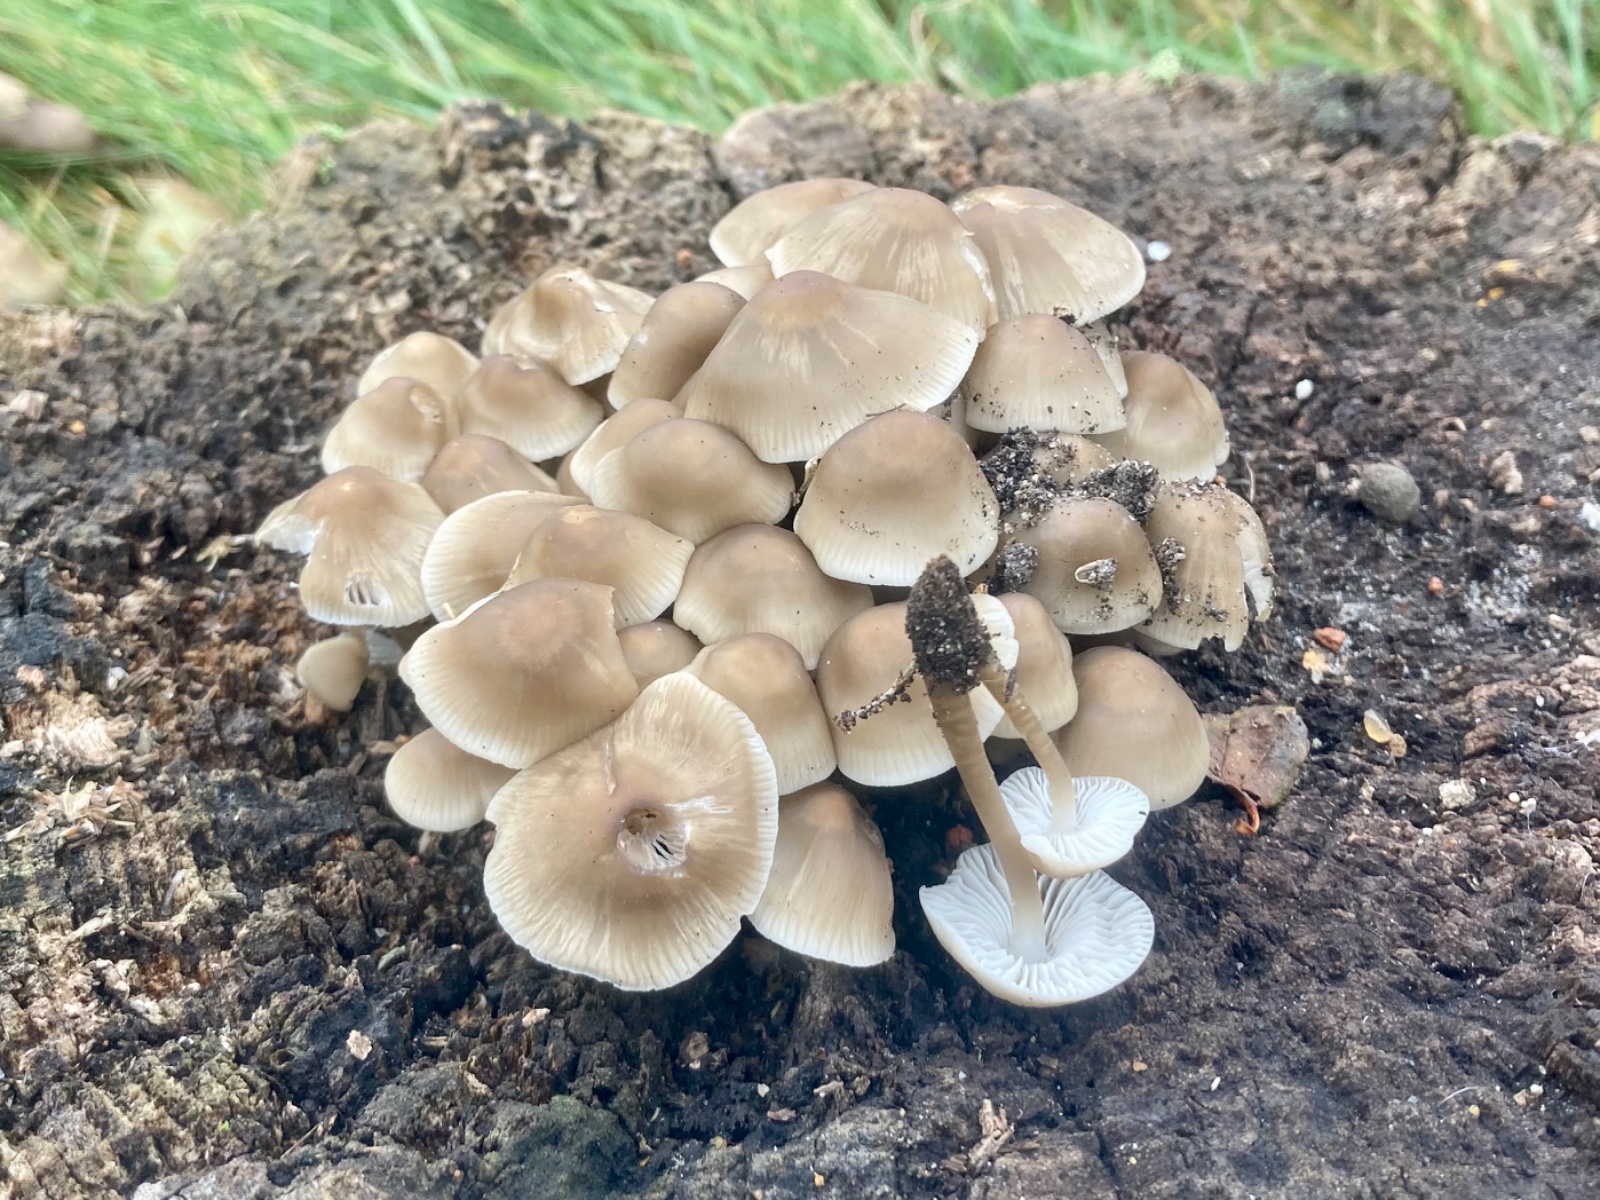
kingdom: Fungi
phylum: Basidiomycota
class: Agaricomycetes
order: Agaricales
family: Mycenaceae
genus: Mycena
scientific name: Mycena galericulata
